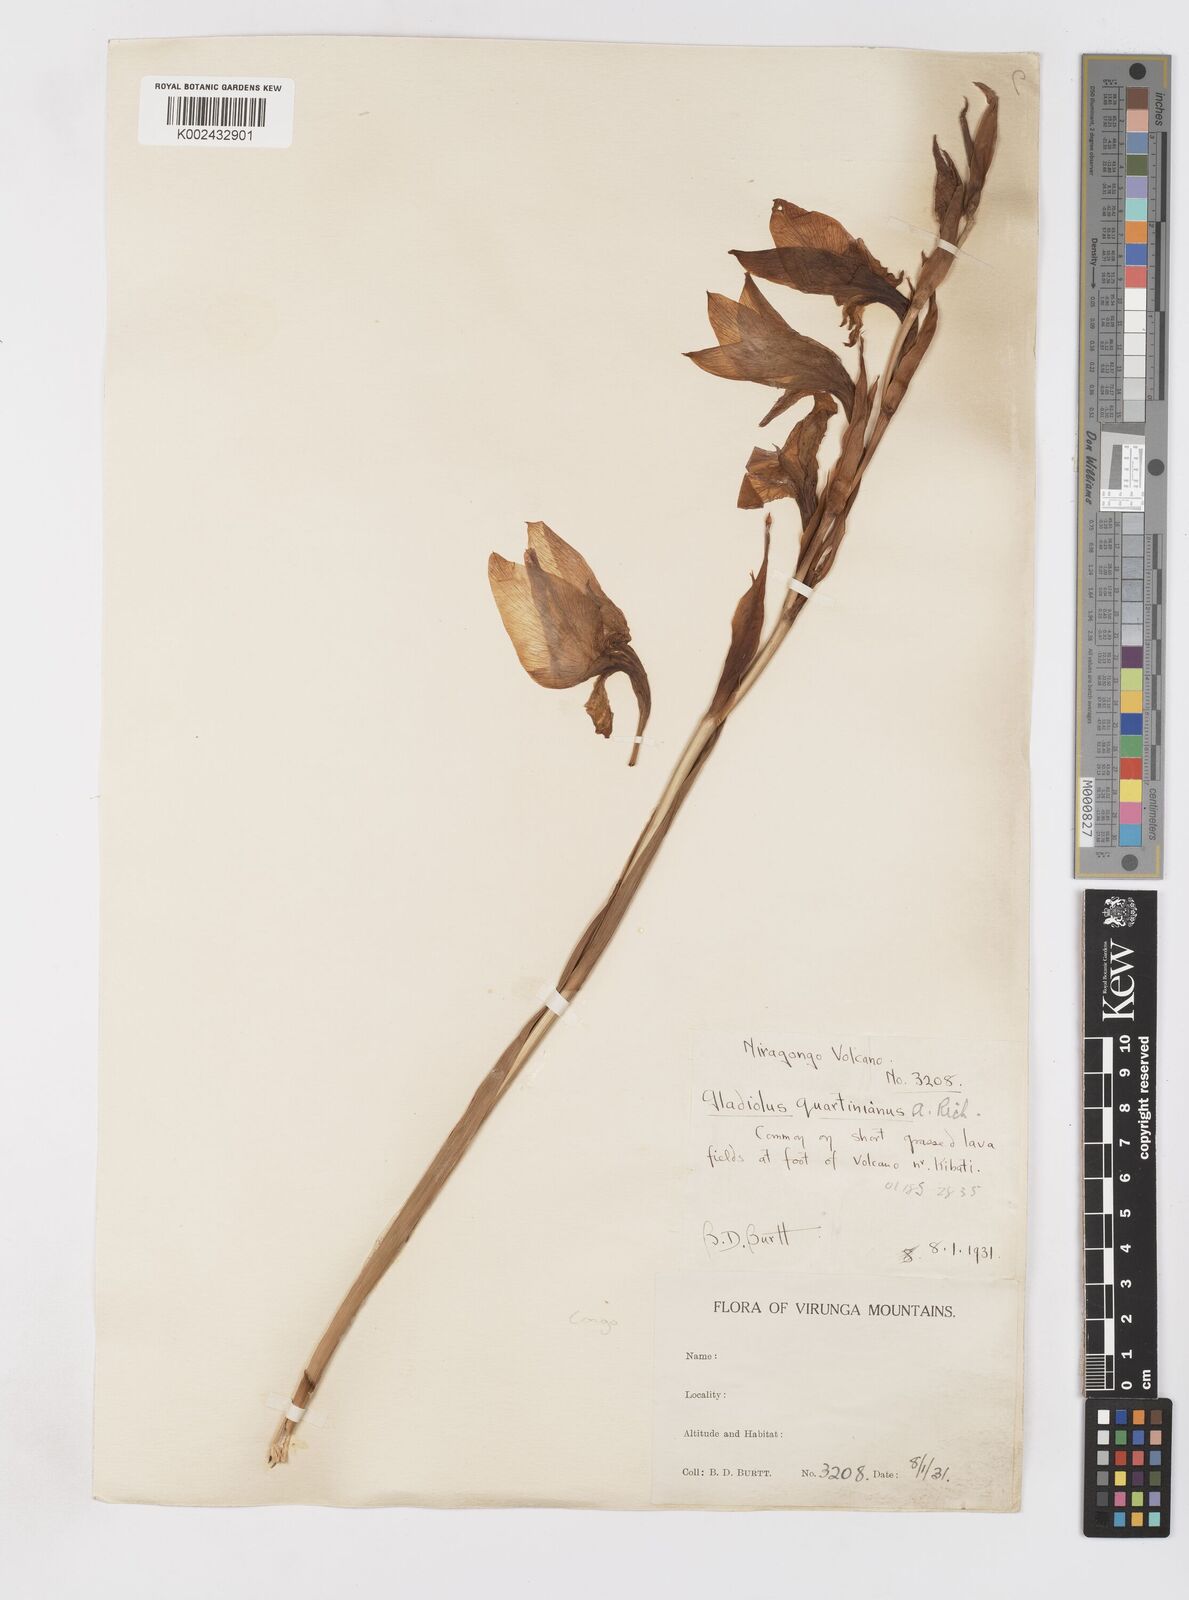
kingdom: Plantae
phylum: Tracheophyta
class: Liliopsida
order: Asparagales
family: Iridaceae
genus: Gladiolus
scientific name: Gladiolus dalenii
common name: Cornflag
